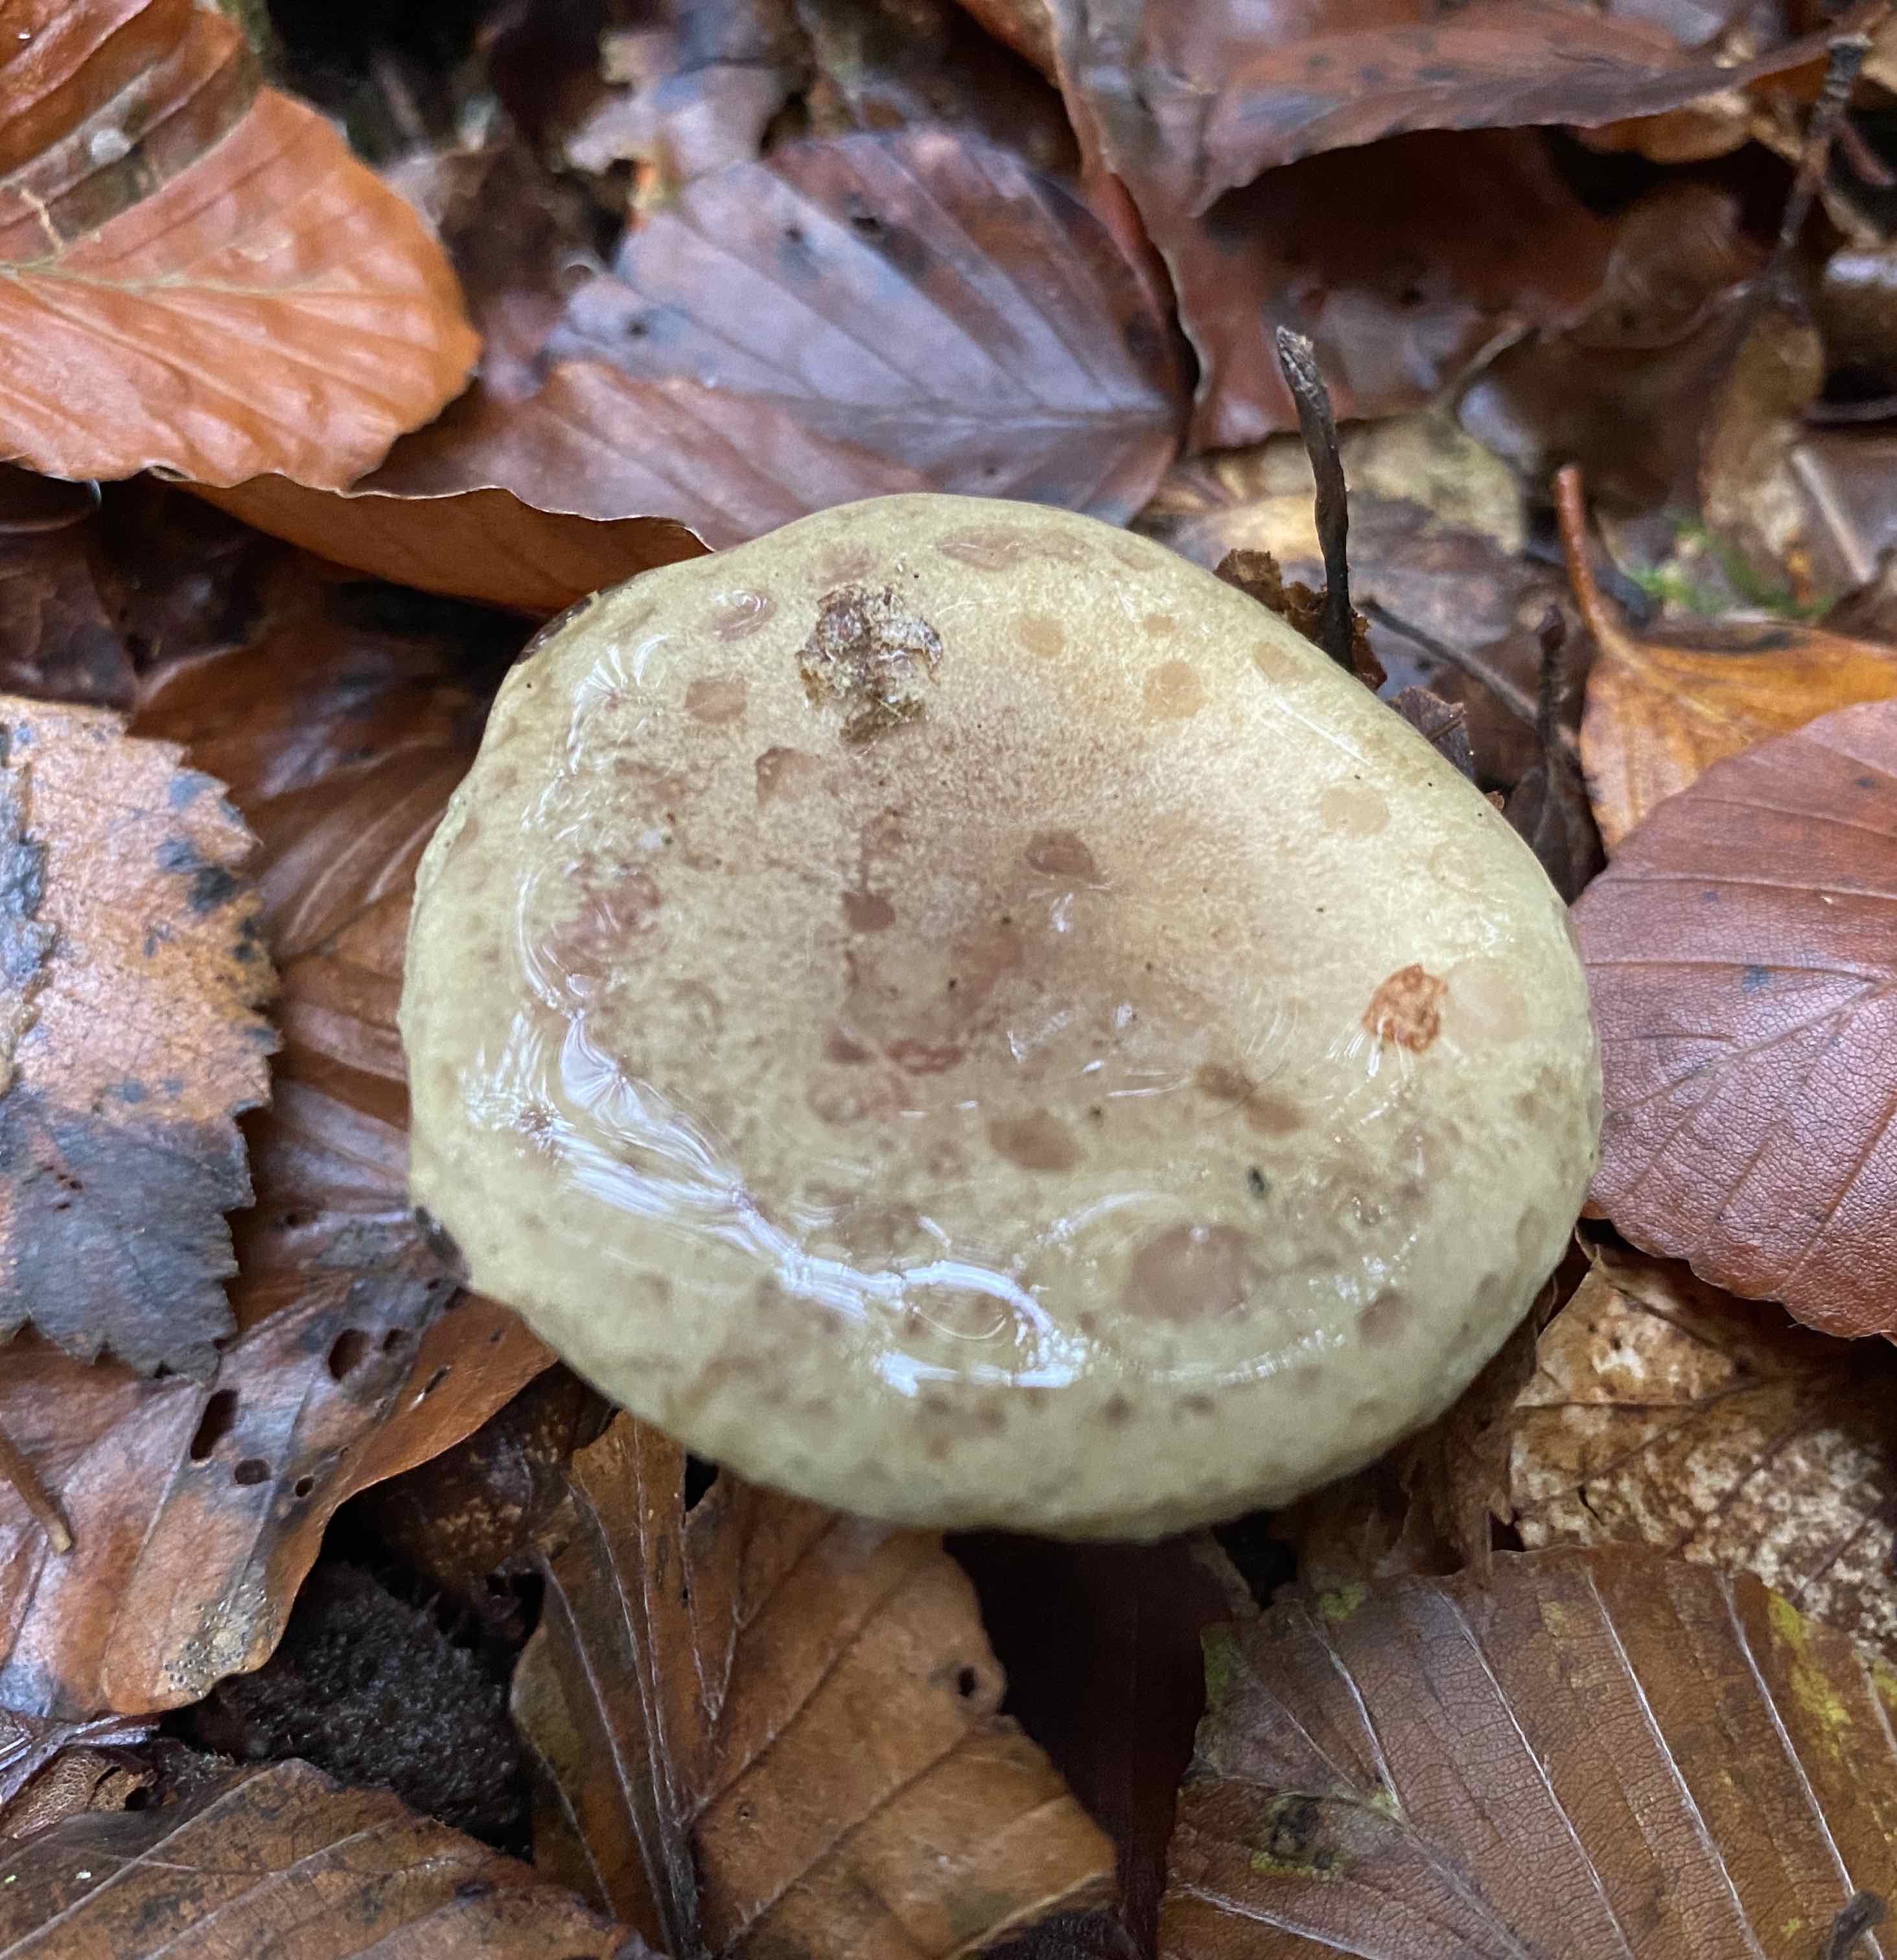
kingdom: Fungi
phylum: Basidiomycota
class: Agaricomycetes
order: Russulales
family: Russulaceae
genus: Lactarius
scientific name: Lactarius blennius
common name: dråbeplettet mælkehat
